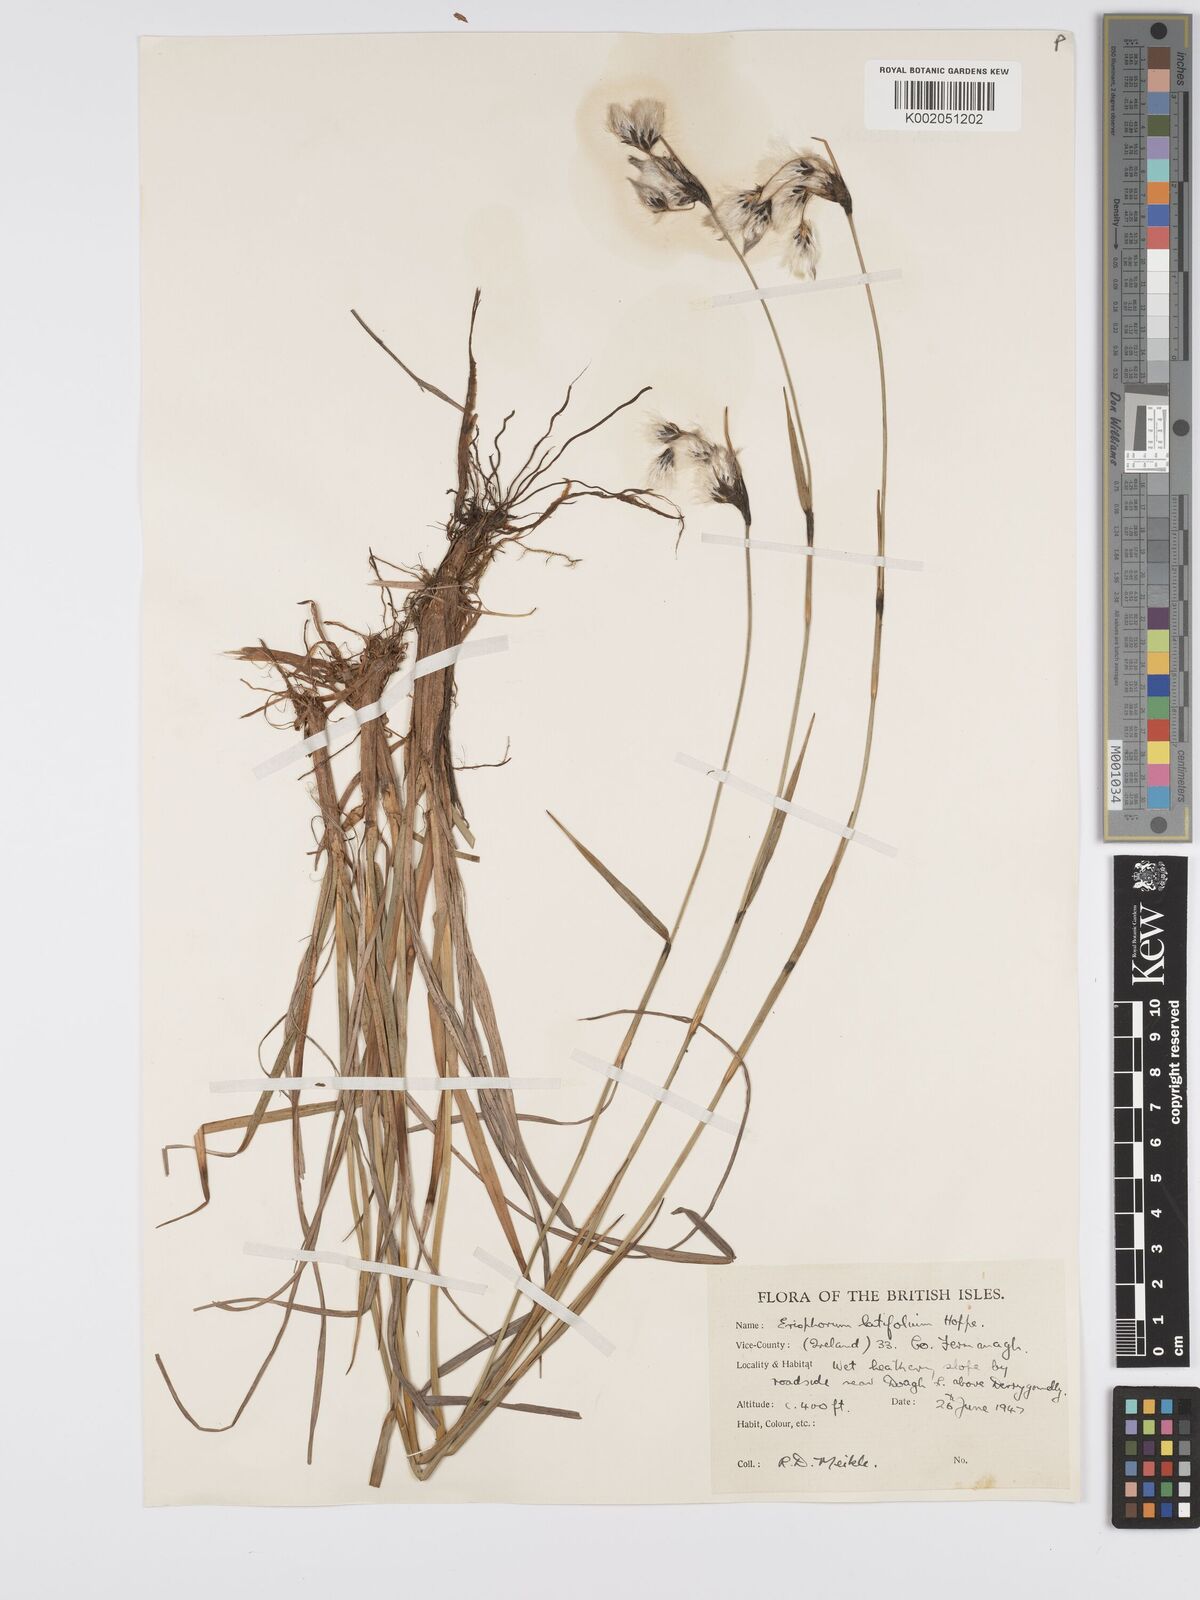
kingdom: Plantae
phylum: Tracheophyta
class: Liliopsida
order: Poales
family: Cyperaceae
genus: Eriophorum
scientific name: Eriophorum latifolium
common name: Broad-leaved cottongrass
